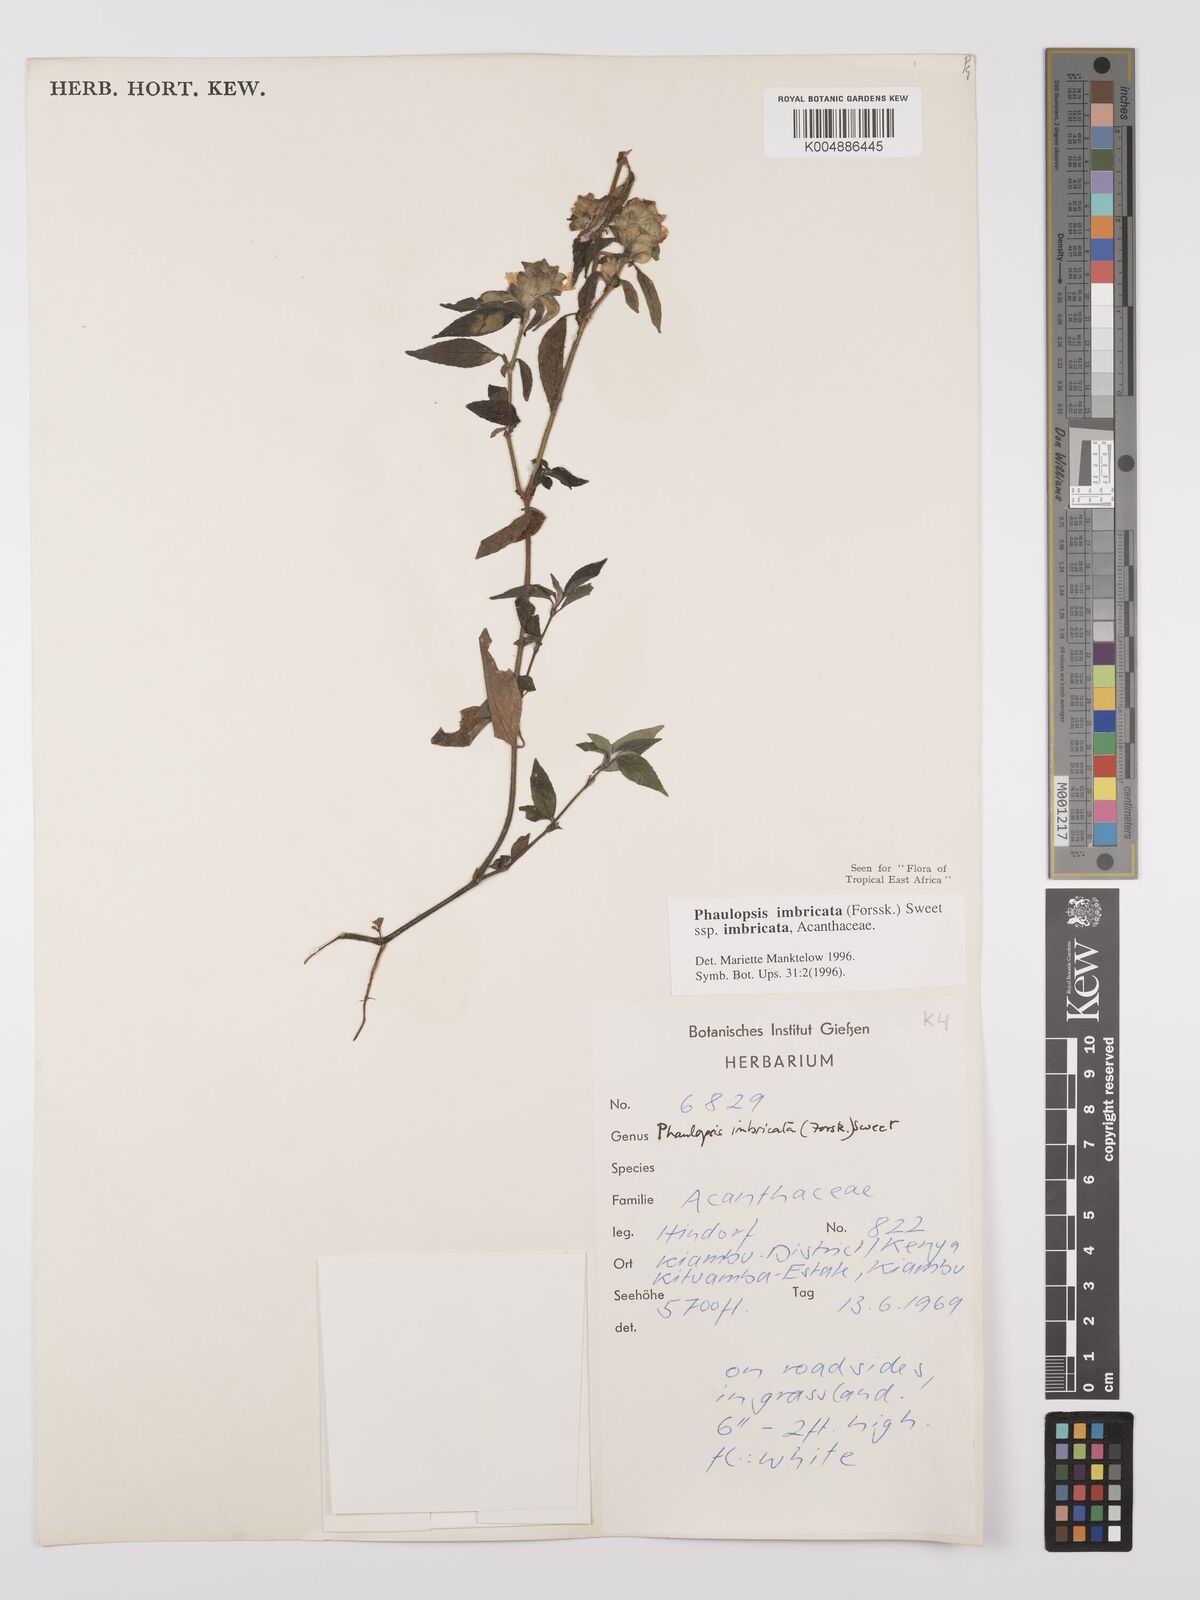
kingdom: Plantae
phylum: Tracheophyta
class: Magnoliopsida
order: Lamiales
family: Acanthaceae
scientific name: Acanthaceae
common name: Acanthaceae
